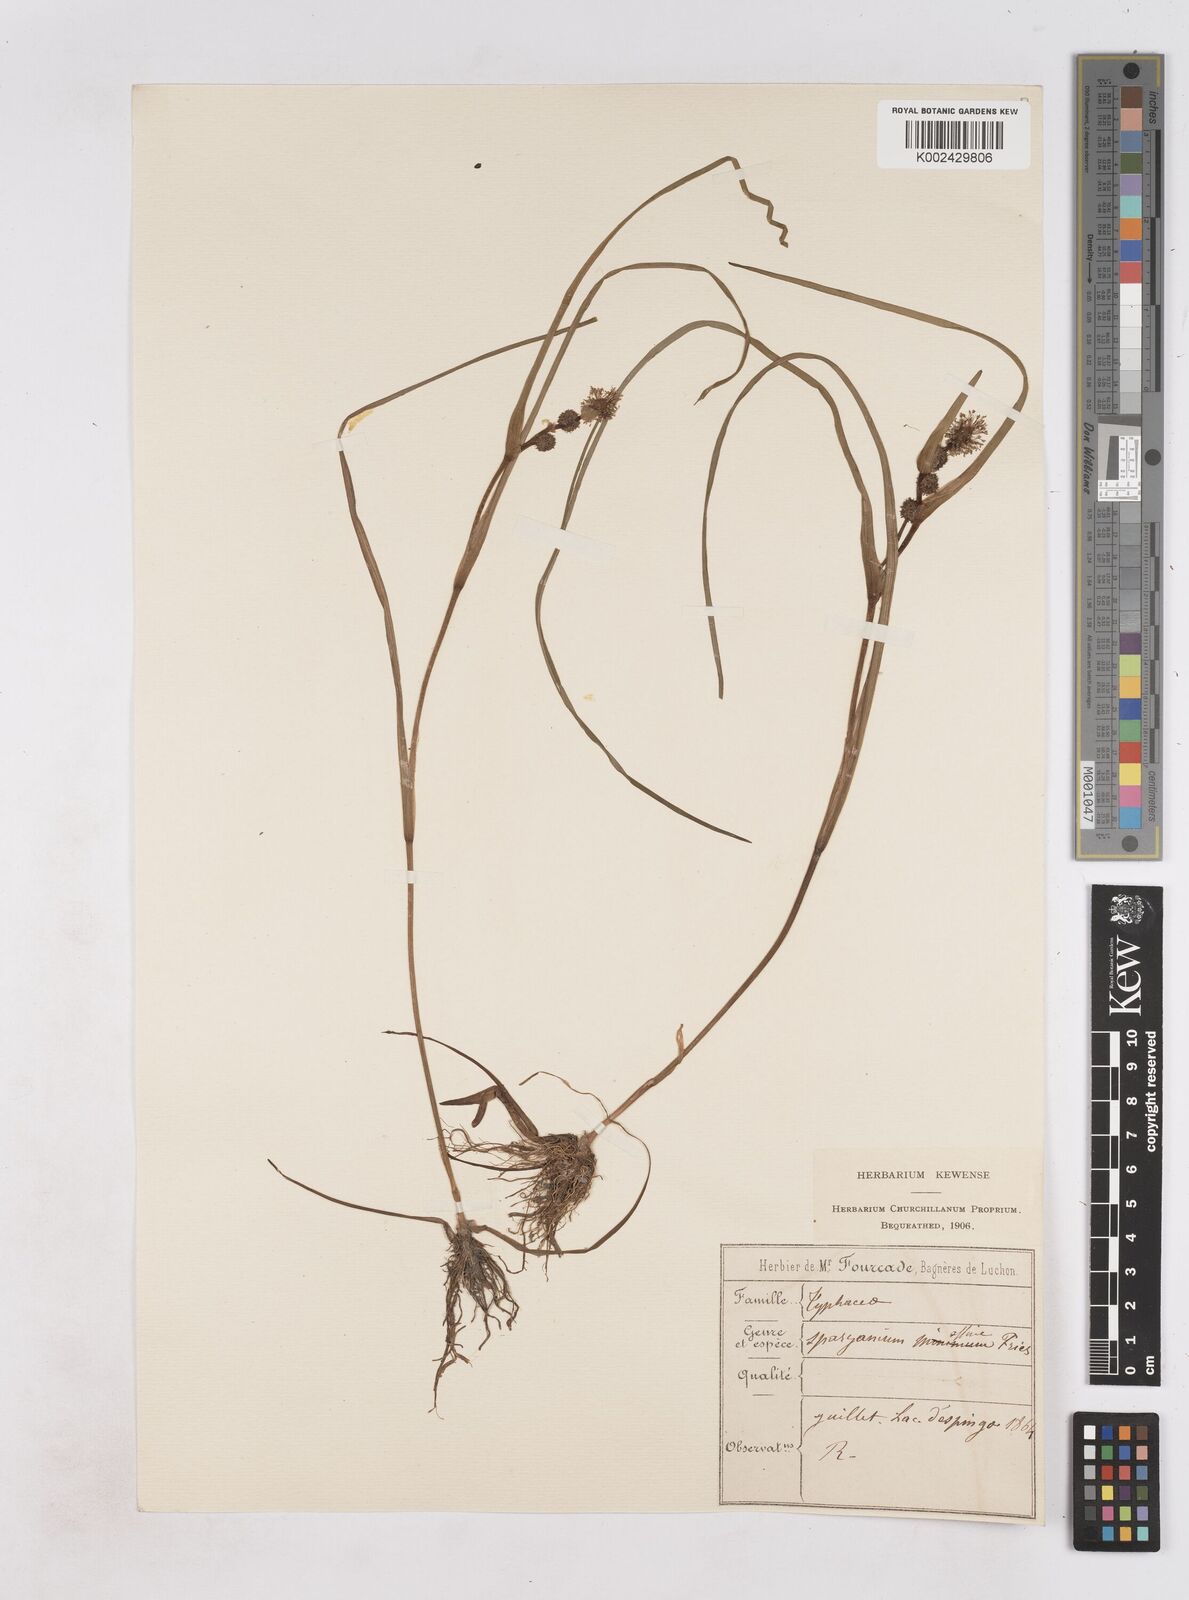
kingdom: Plantae
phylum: Tracheophyta
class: Liliopsida
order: Poales
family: Typhaceae
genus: Sparganium
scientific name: Sparganium angustifolium
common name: Floating bur-reed
